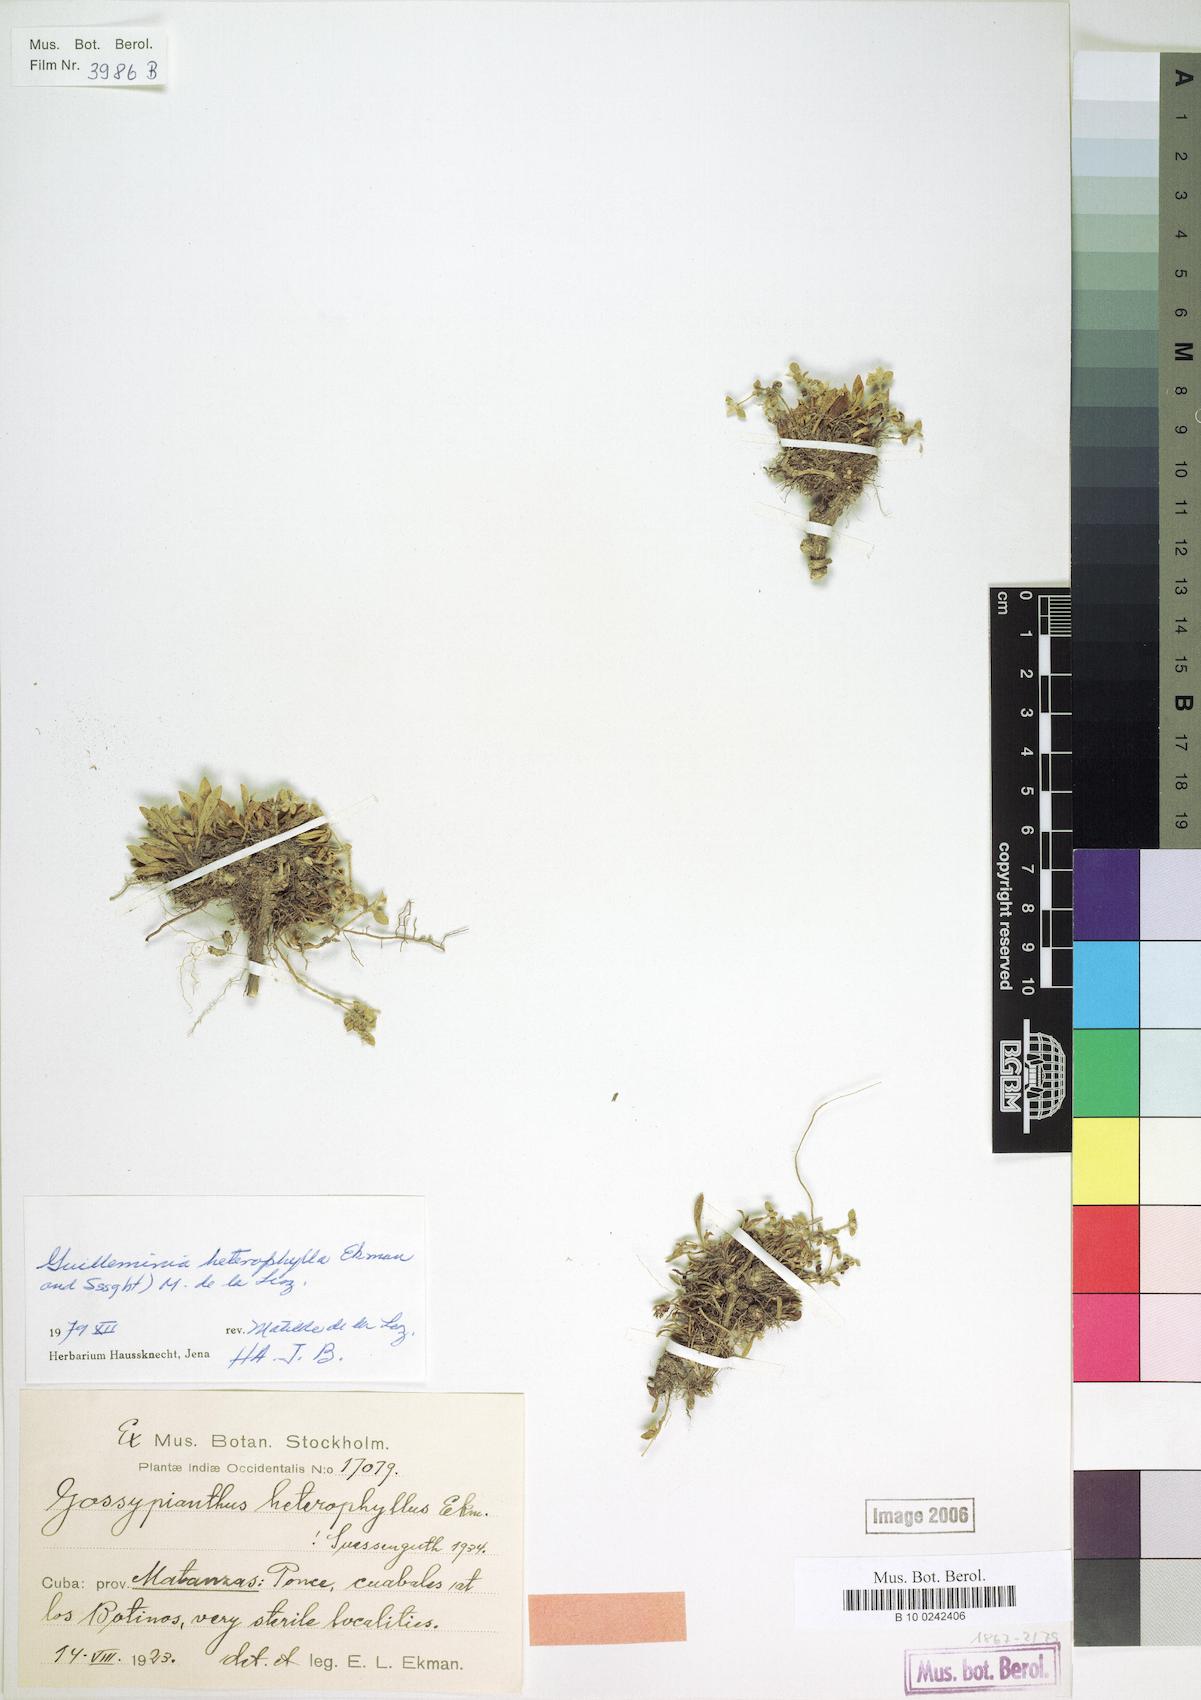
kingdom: Plantae
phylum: Tracheophyta
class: Magnoliopsida
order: Caryophyllales
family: Amaranthaceae
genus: Gomphrena
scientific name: Gomphrena brittonii
